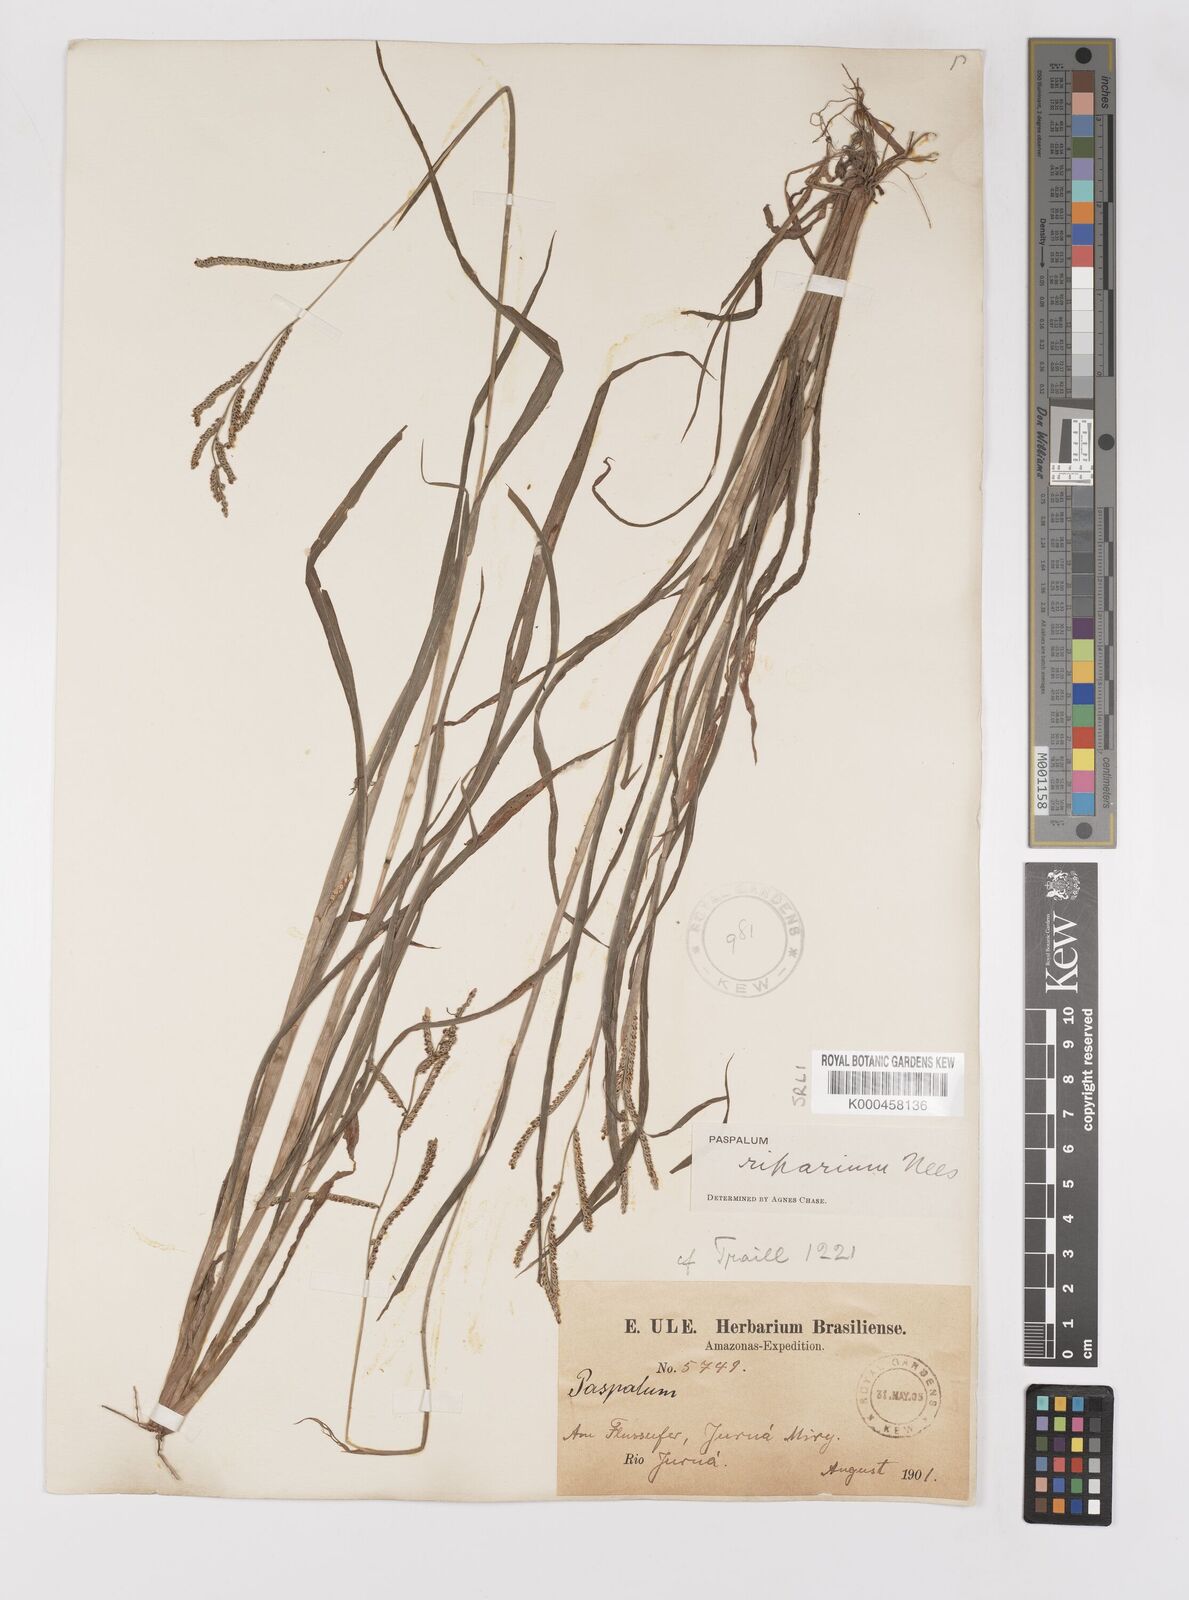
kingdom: Plantae
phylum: Tracheophyta
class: Liliopsida
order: Poales
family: Poaceae
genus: Paspalum
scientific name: Paspalum
